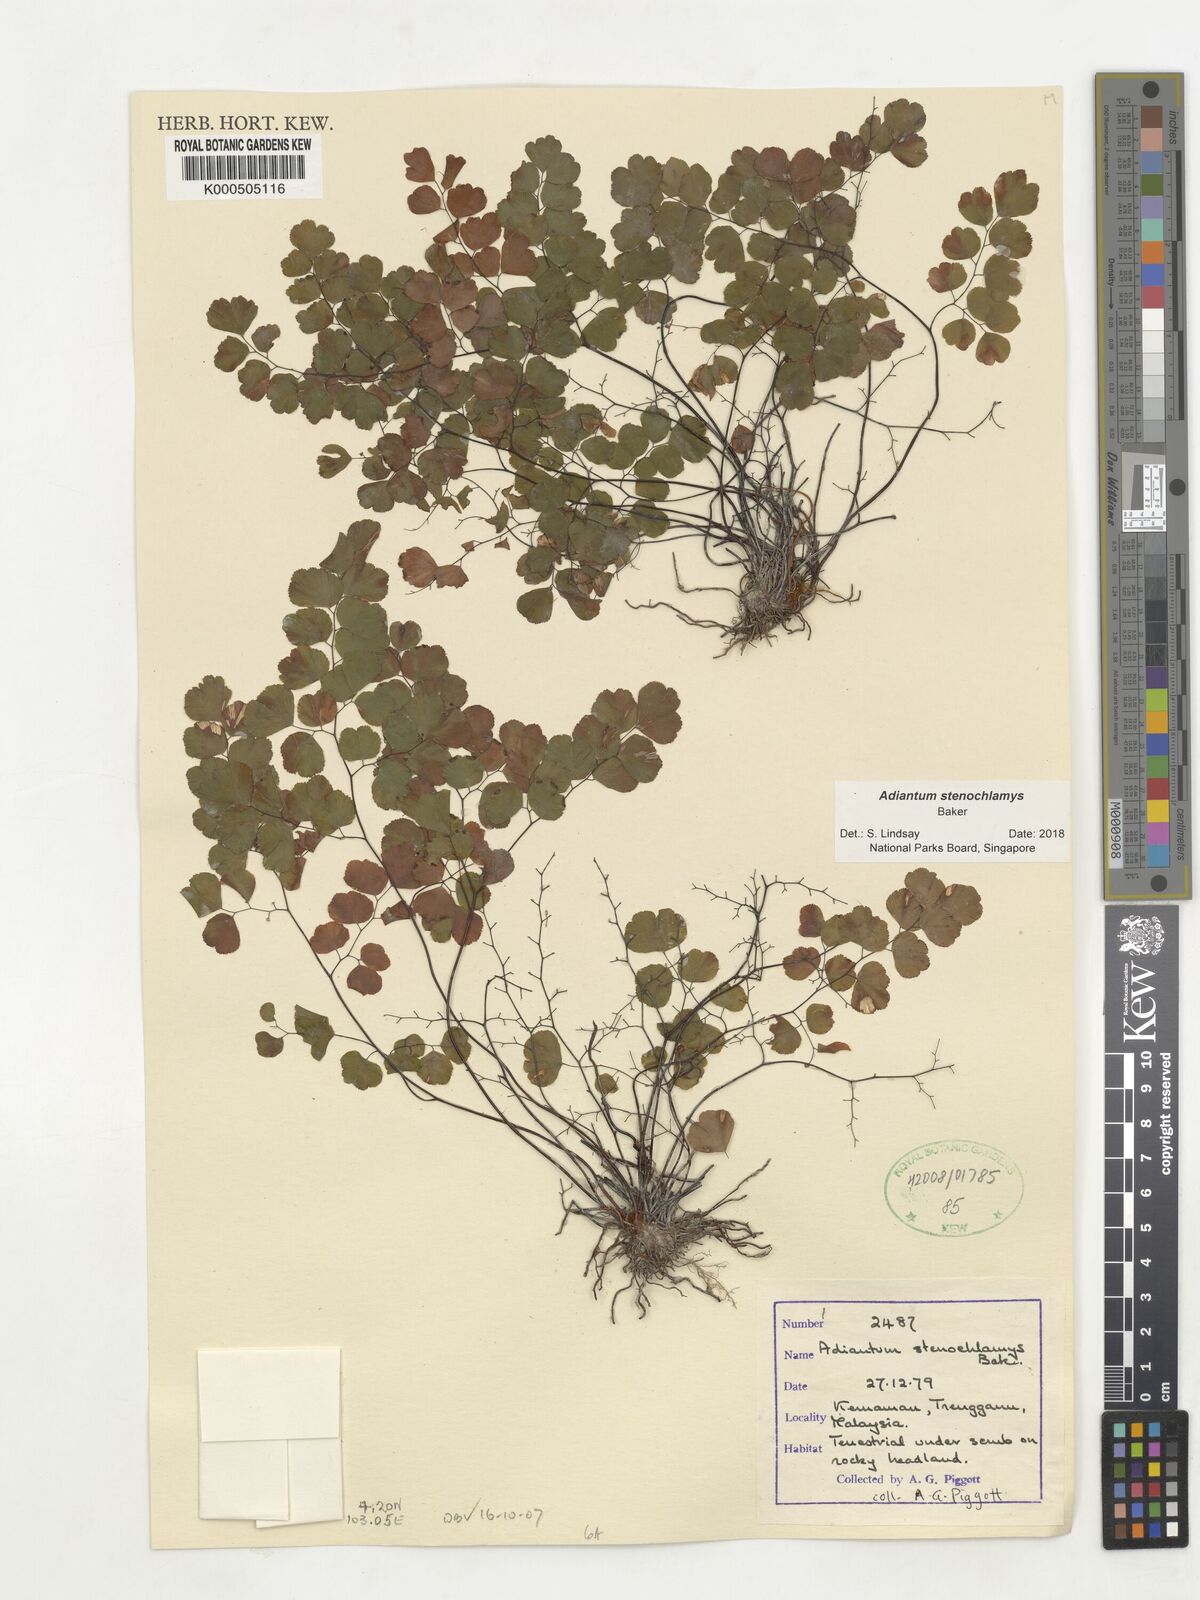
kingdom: Plantae
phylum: Tracheophyta
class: Polypodiopsida
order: Polypodiales
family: Pteridaceae
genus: Adiantum
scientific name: Adiantum stenochlamys
